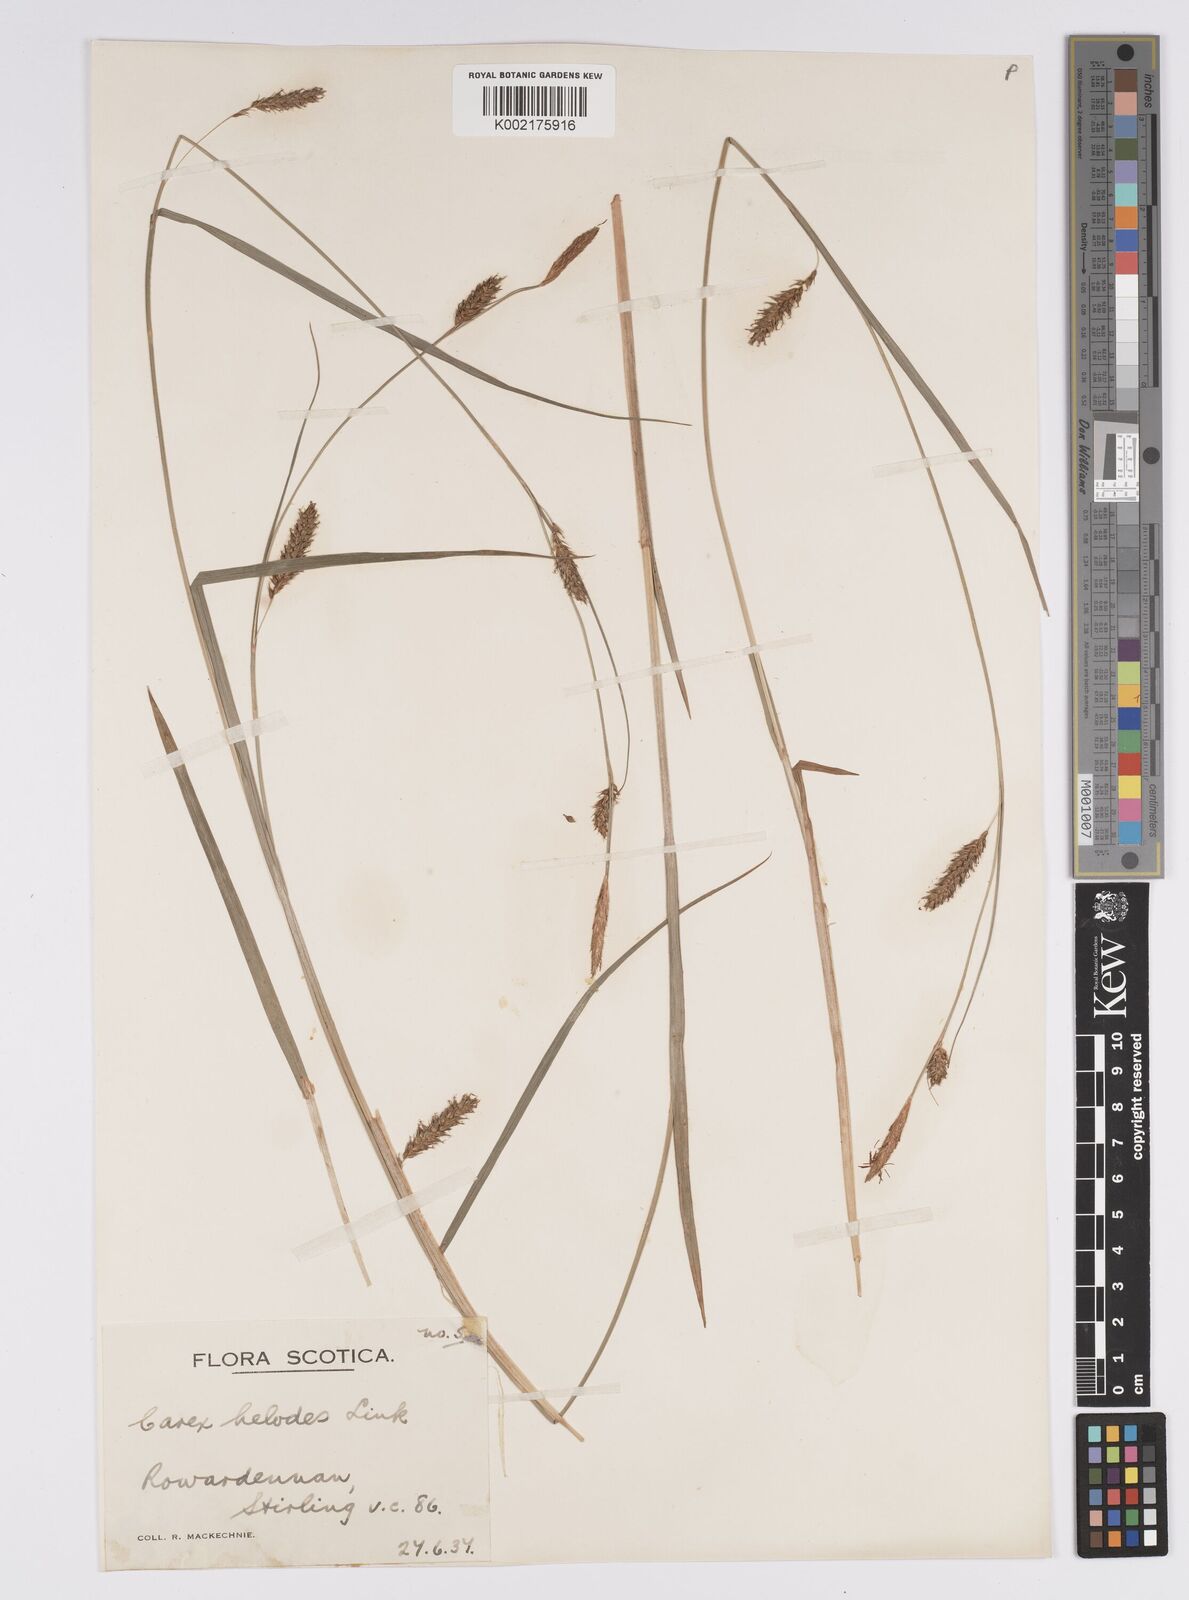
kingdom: Plantae
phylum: Tracheophyta
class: Liliopsida
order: Poales
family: Cyperaceae
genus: Carex
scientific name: Carex laevigata
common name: Smooth-stalked sedge
